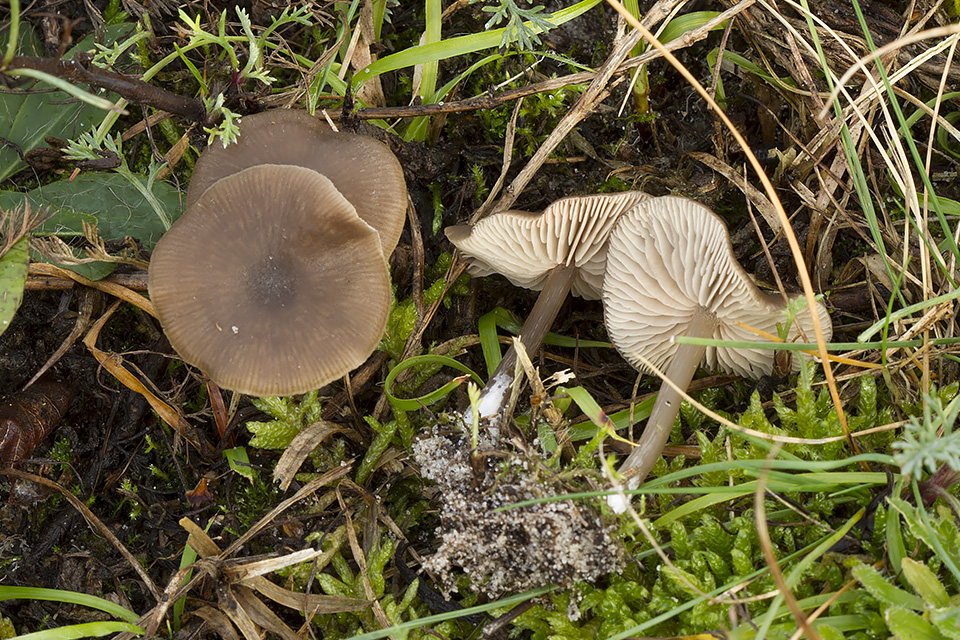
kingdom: Fungi
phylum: Basidiomycota
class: Agaricomycetes
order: Agaricales
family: Entolomataceae
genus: Entoloma
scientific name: Entoloma
